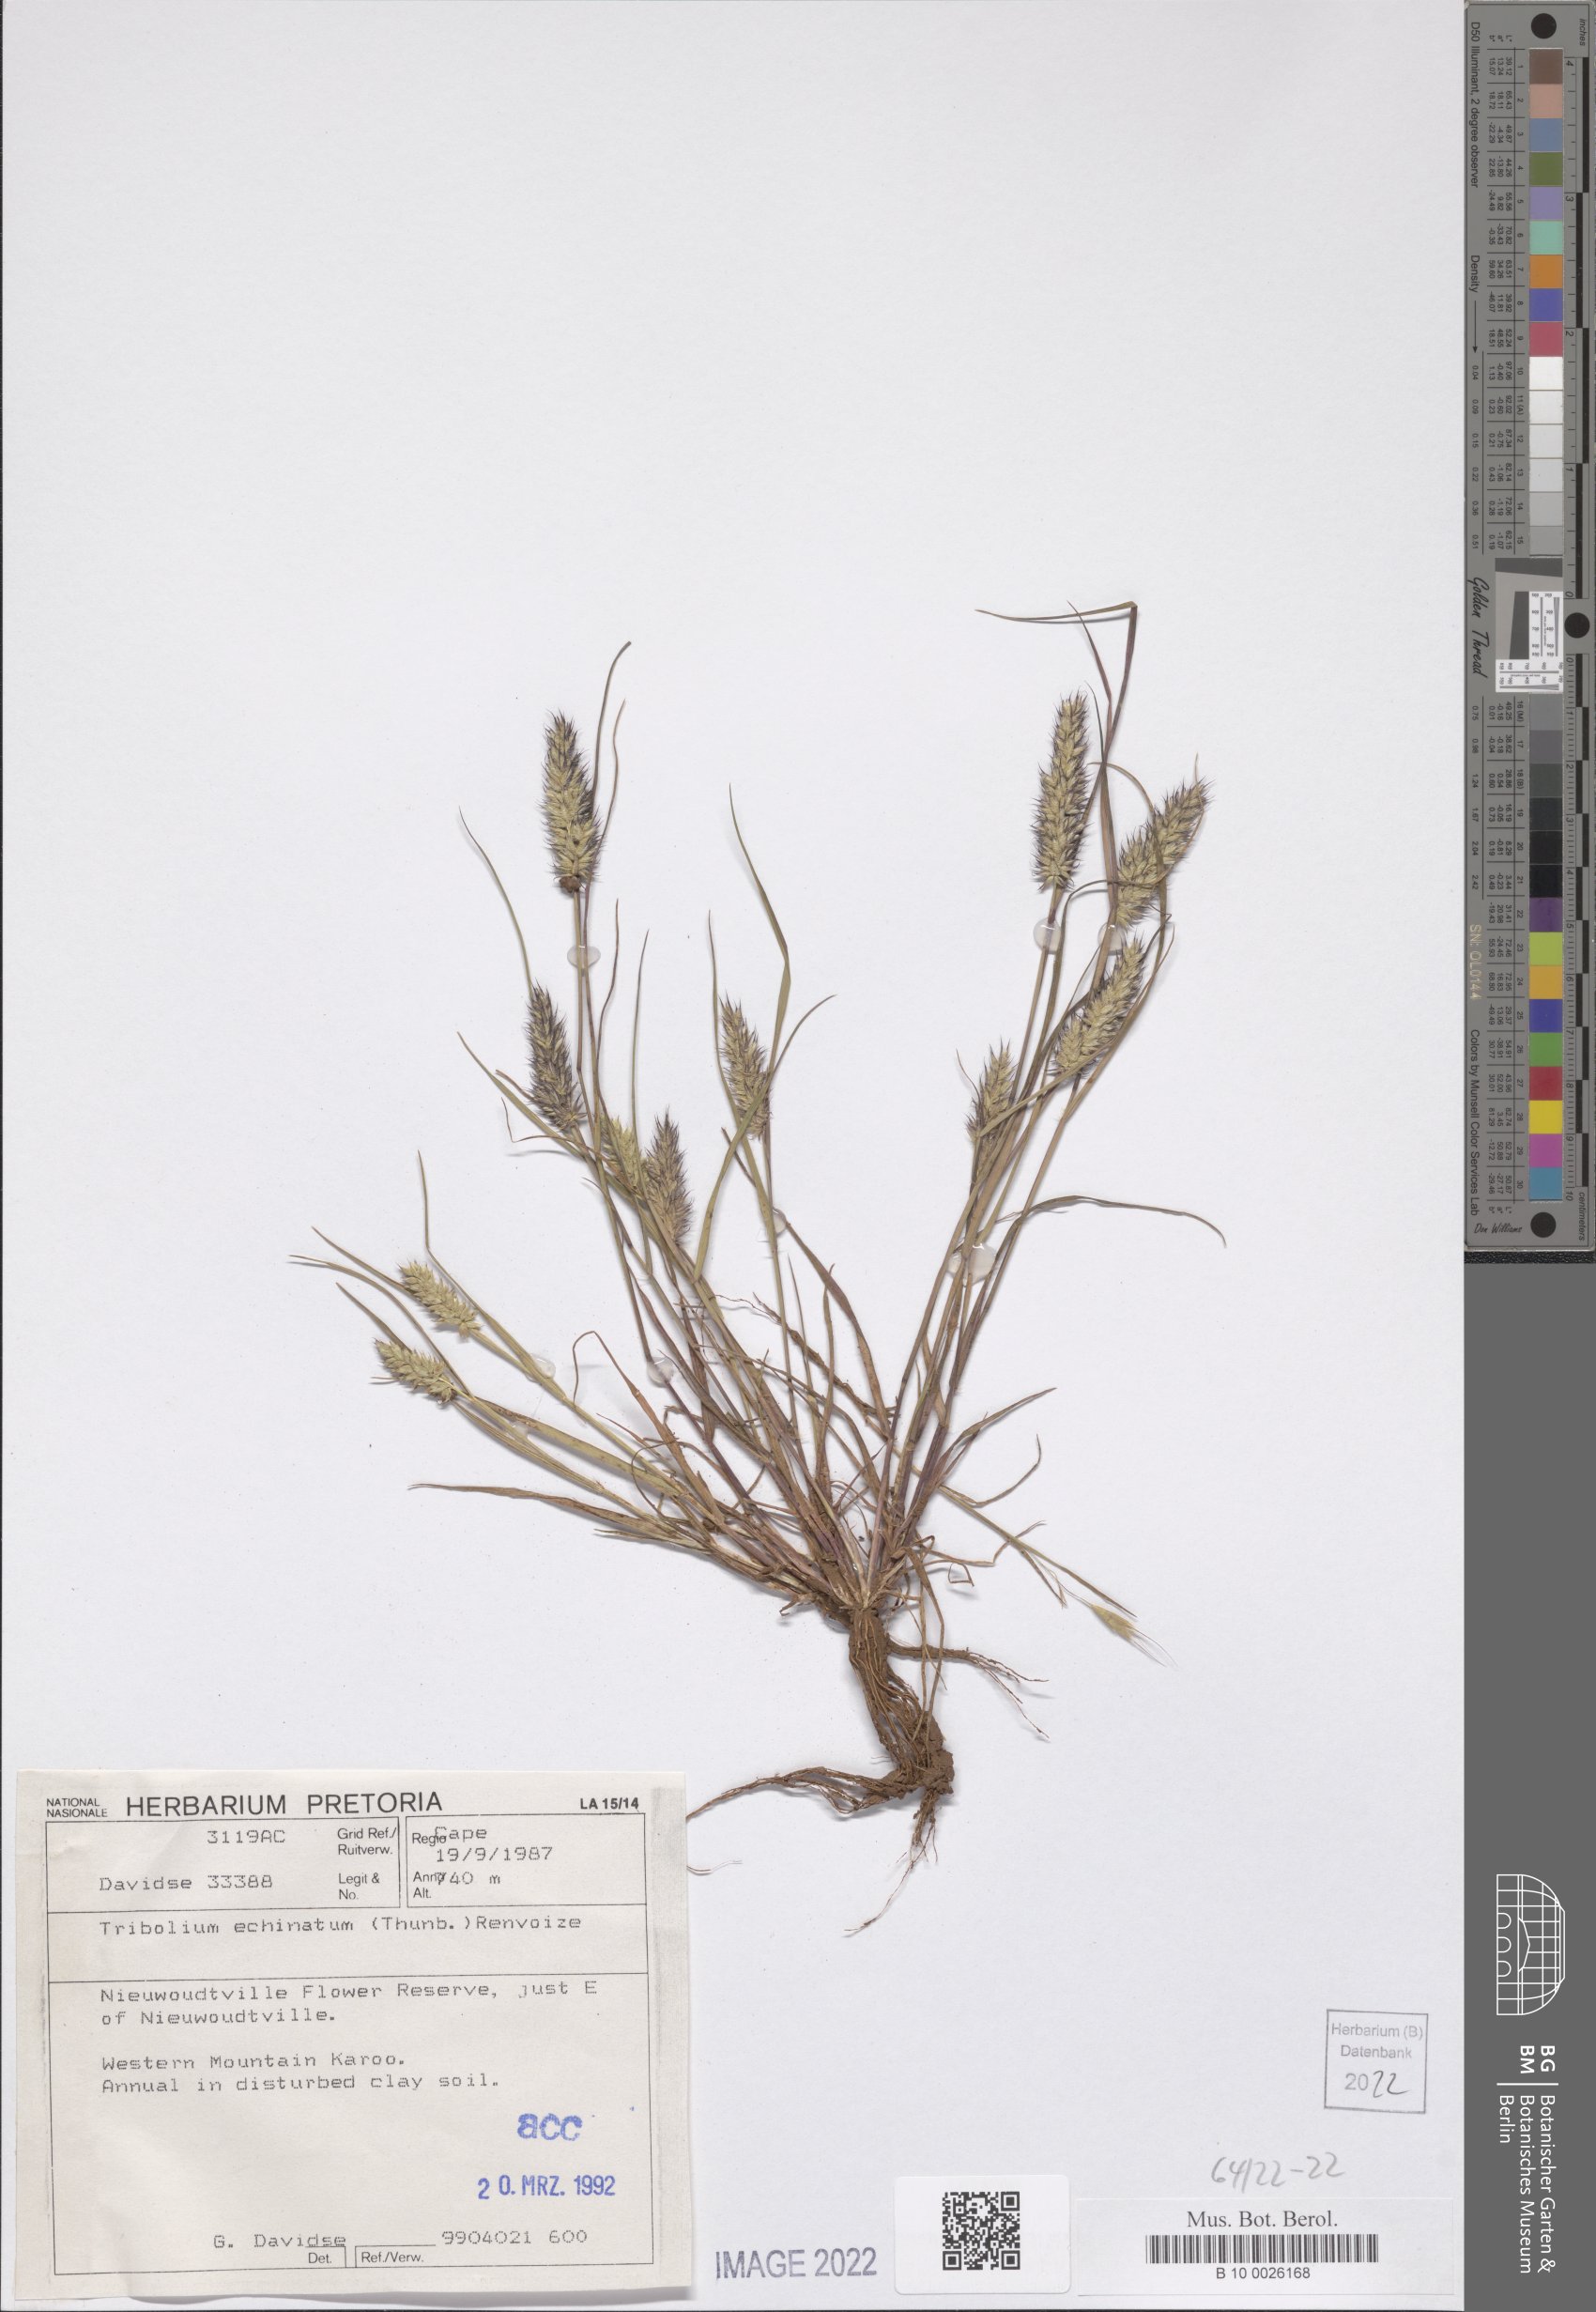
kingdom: Plantae
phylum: Tracheophyta
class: Liliopsida
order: Poales
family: Poaceae
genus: Tribolium
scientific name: Tribolium echinatum
